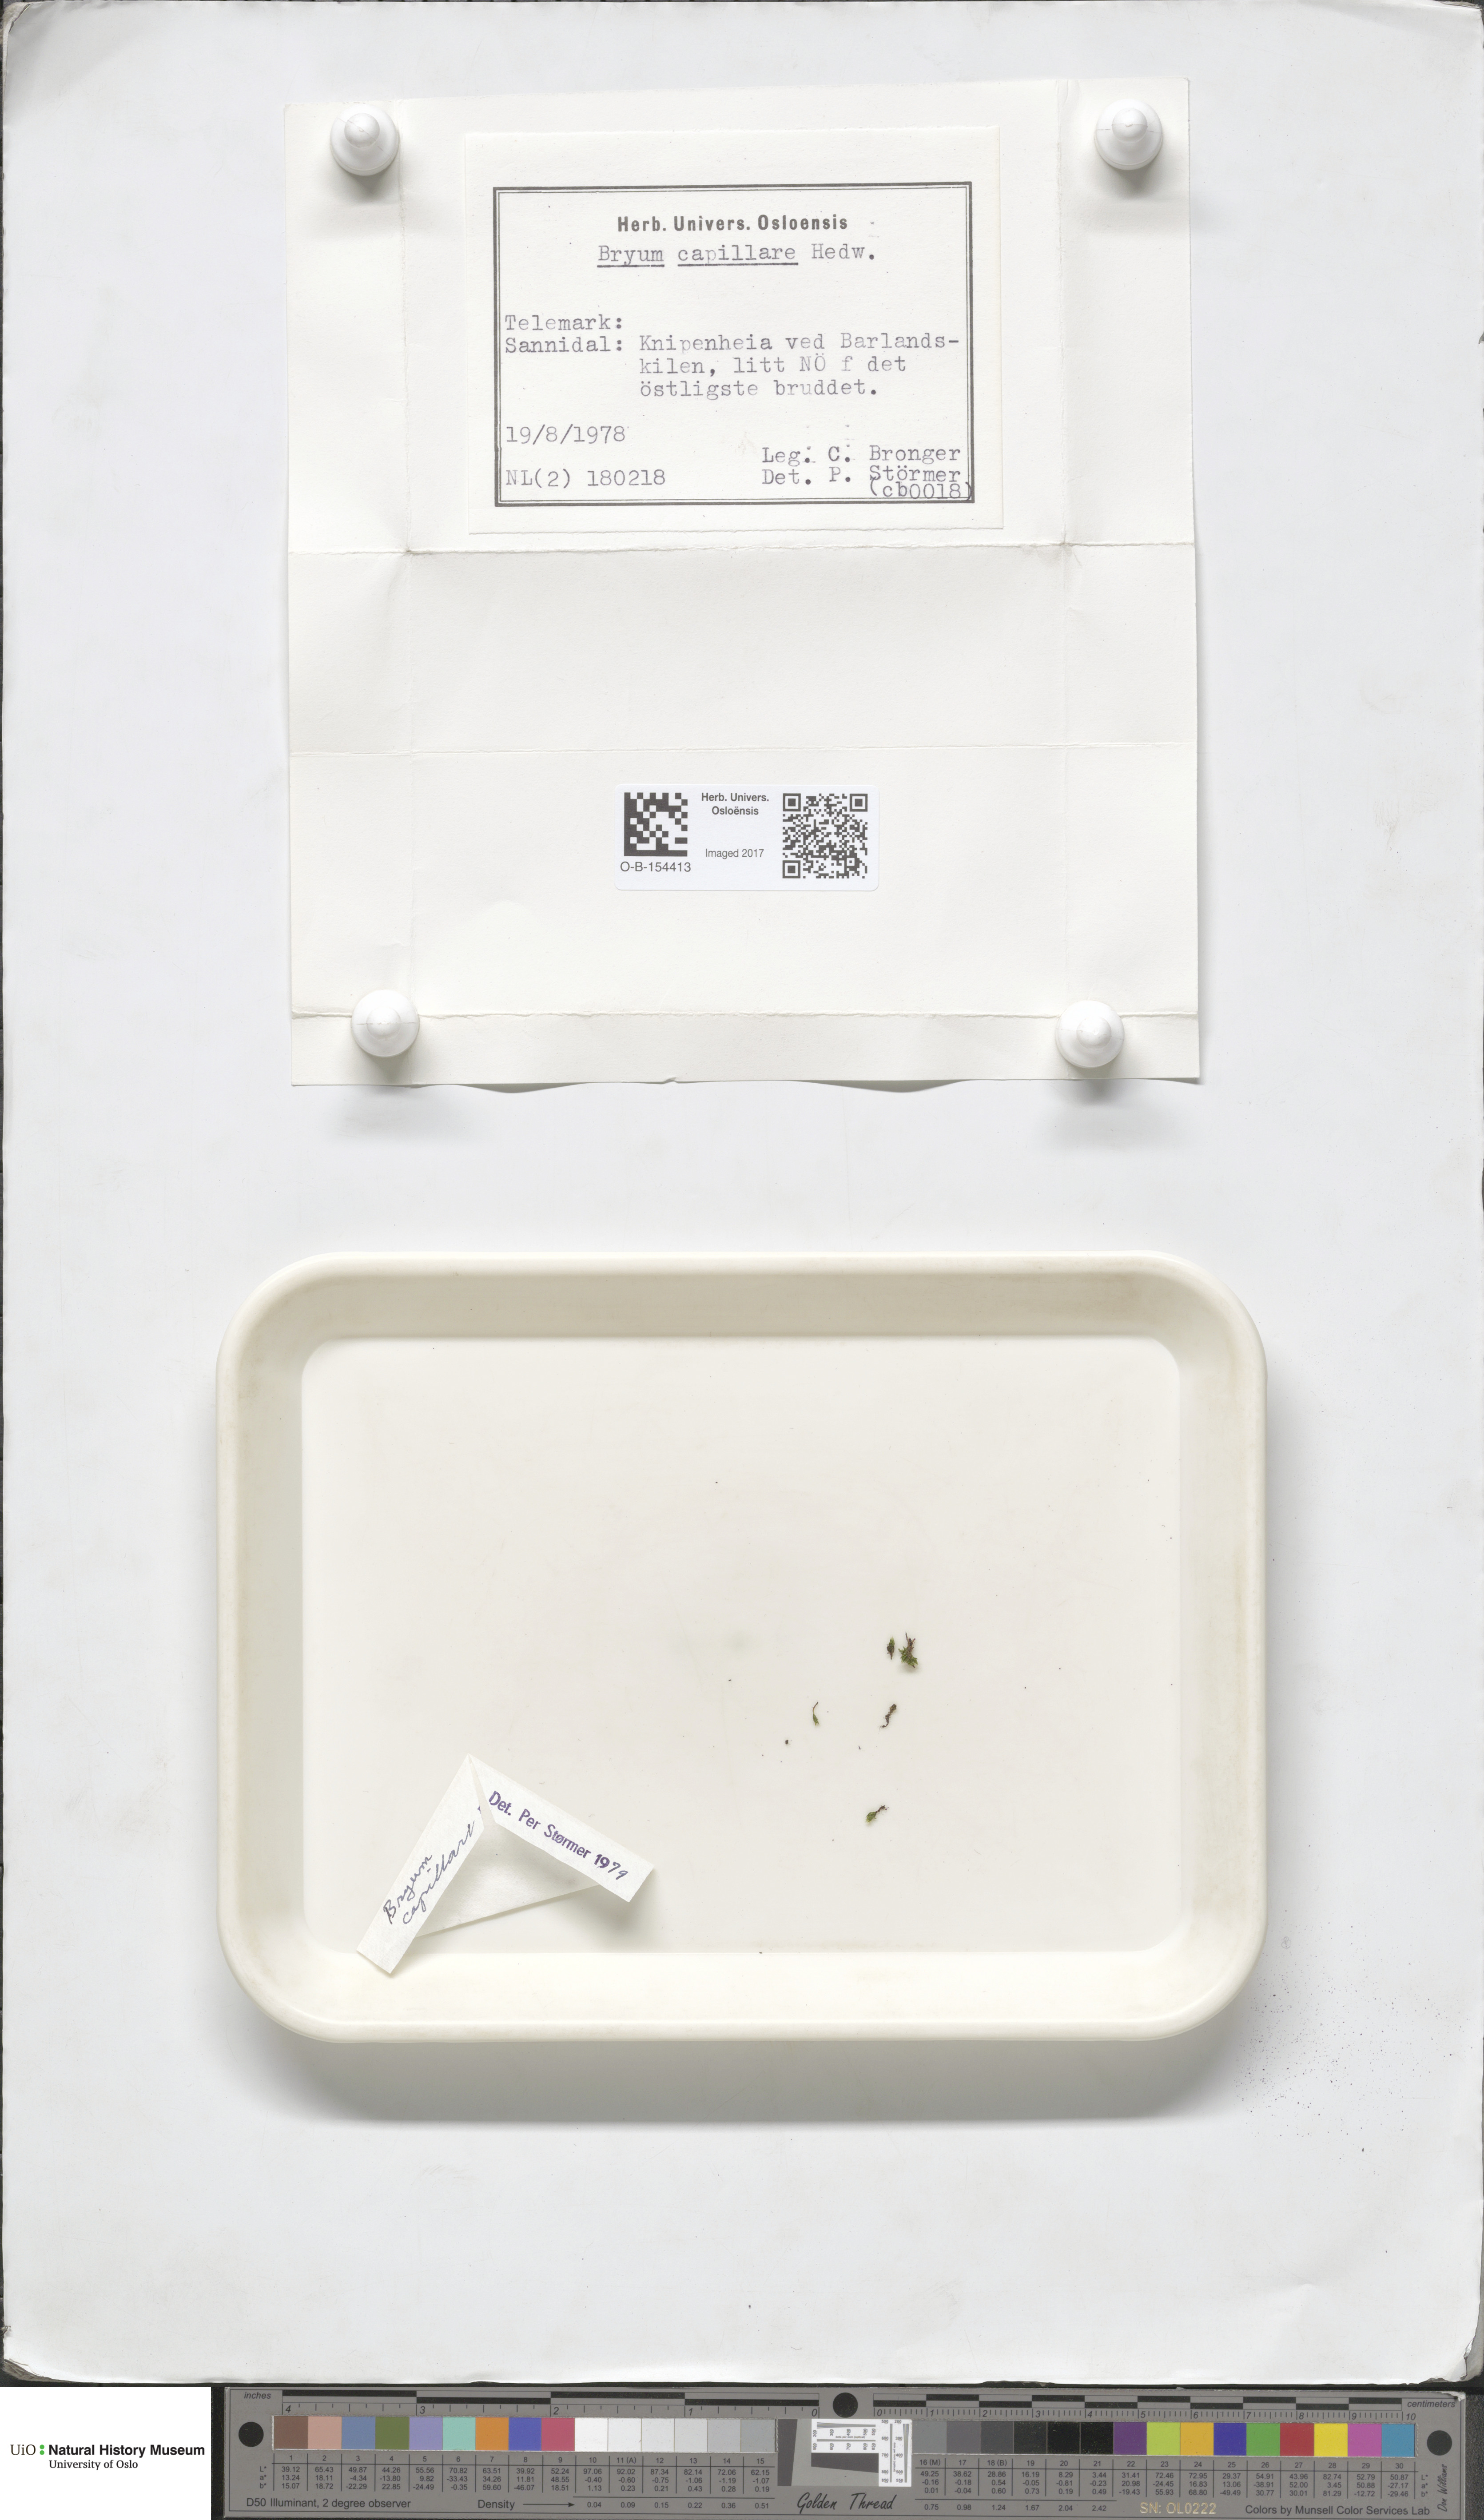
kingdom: Plantae
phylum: Bryophyta
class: Bryopsida
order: Bryales
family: Bryaceae
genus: Rosulabryum
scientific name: Rosulabryum capillare
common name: Capillary thread-moss
